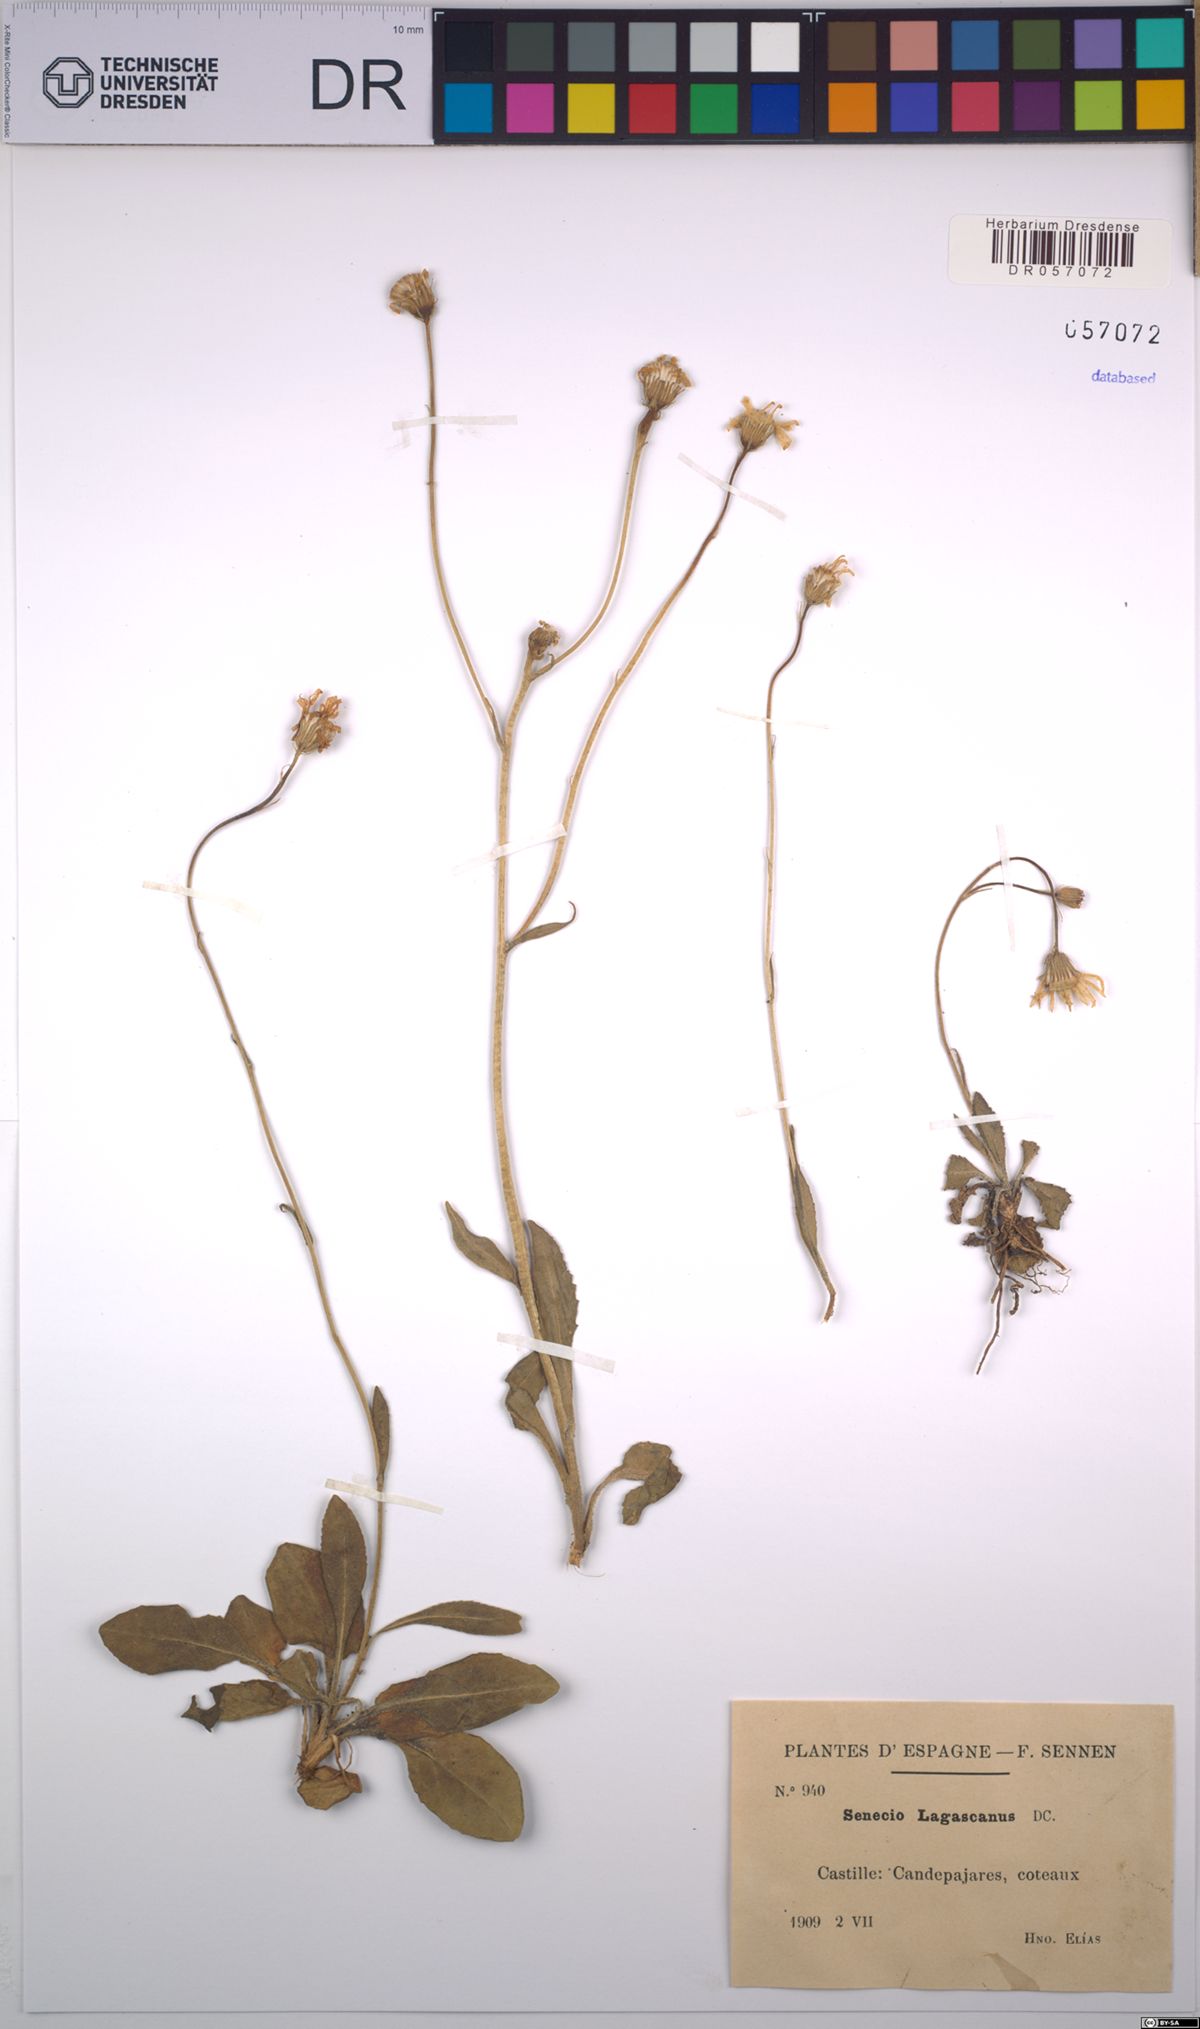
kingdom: Plantae
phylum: Tracheophyta
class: Magnoliopsida
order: Asterales
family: Asteraceae
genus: Senecio
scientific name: Senecio lagascanus
